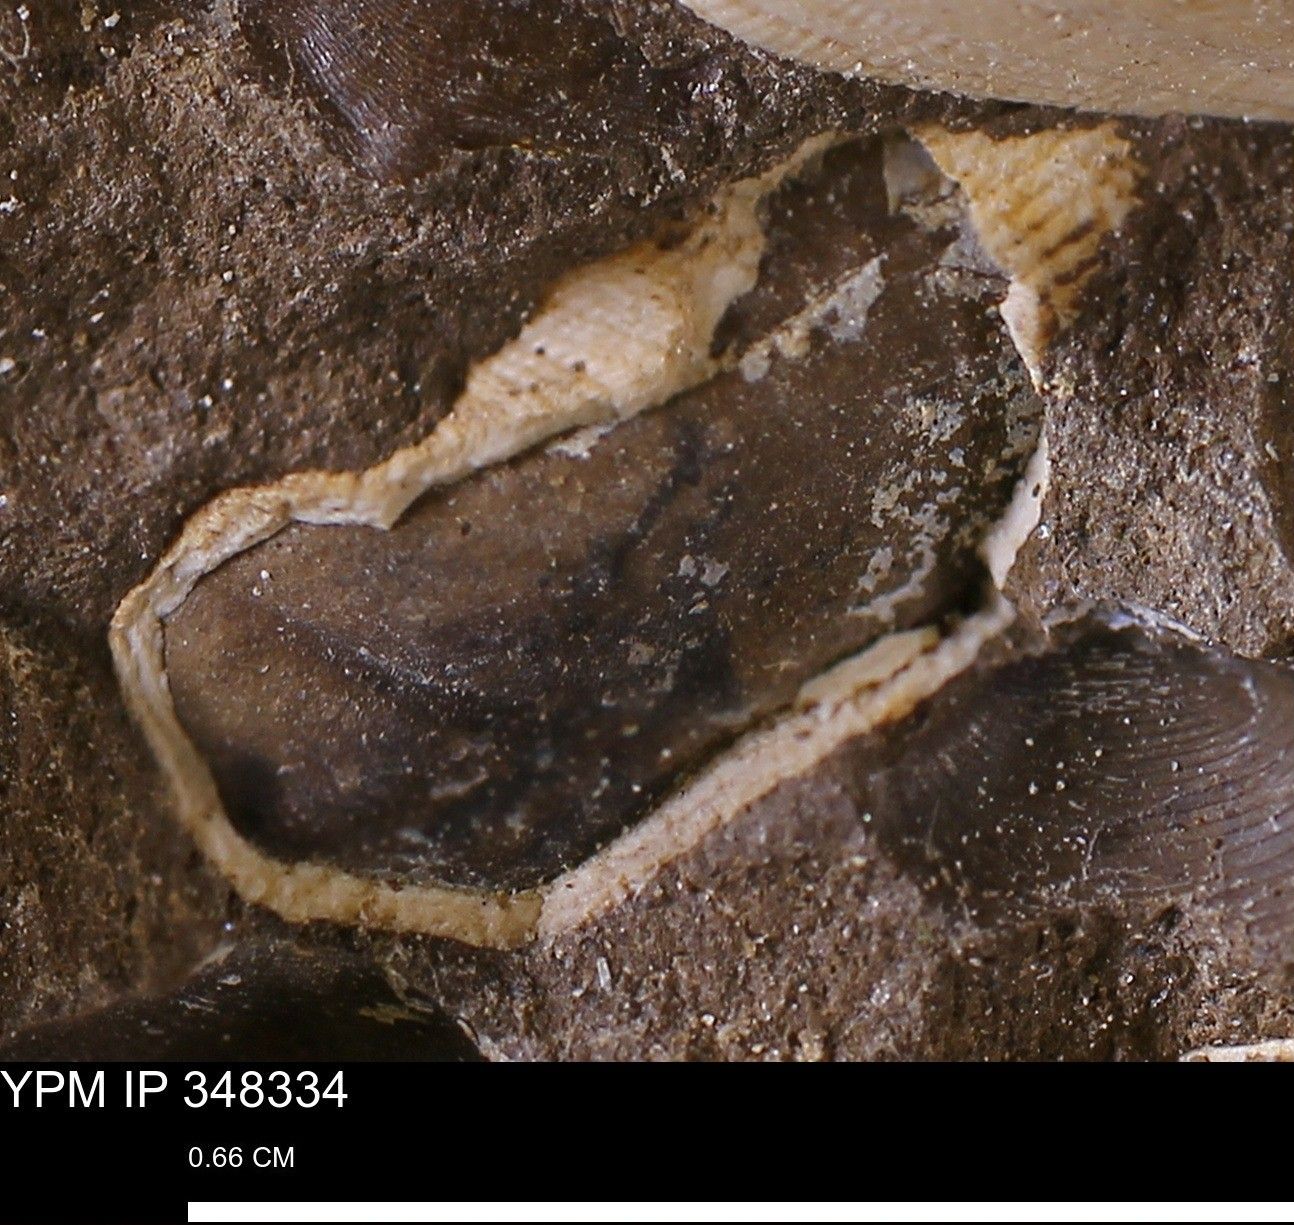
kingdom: Animalia
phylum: Mollusca
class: Bivalvia
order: Arcida
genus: Cosmetodon
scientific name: Cosmetodon
